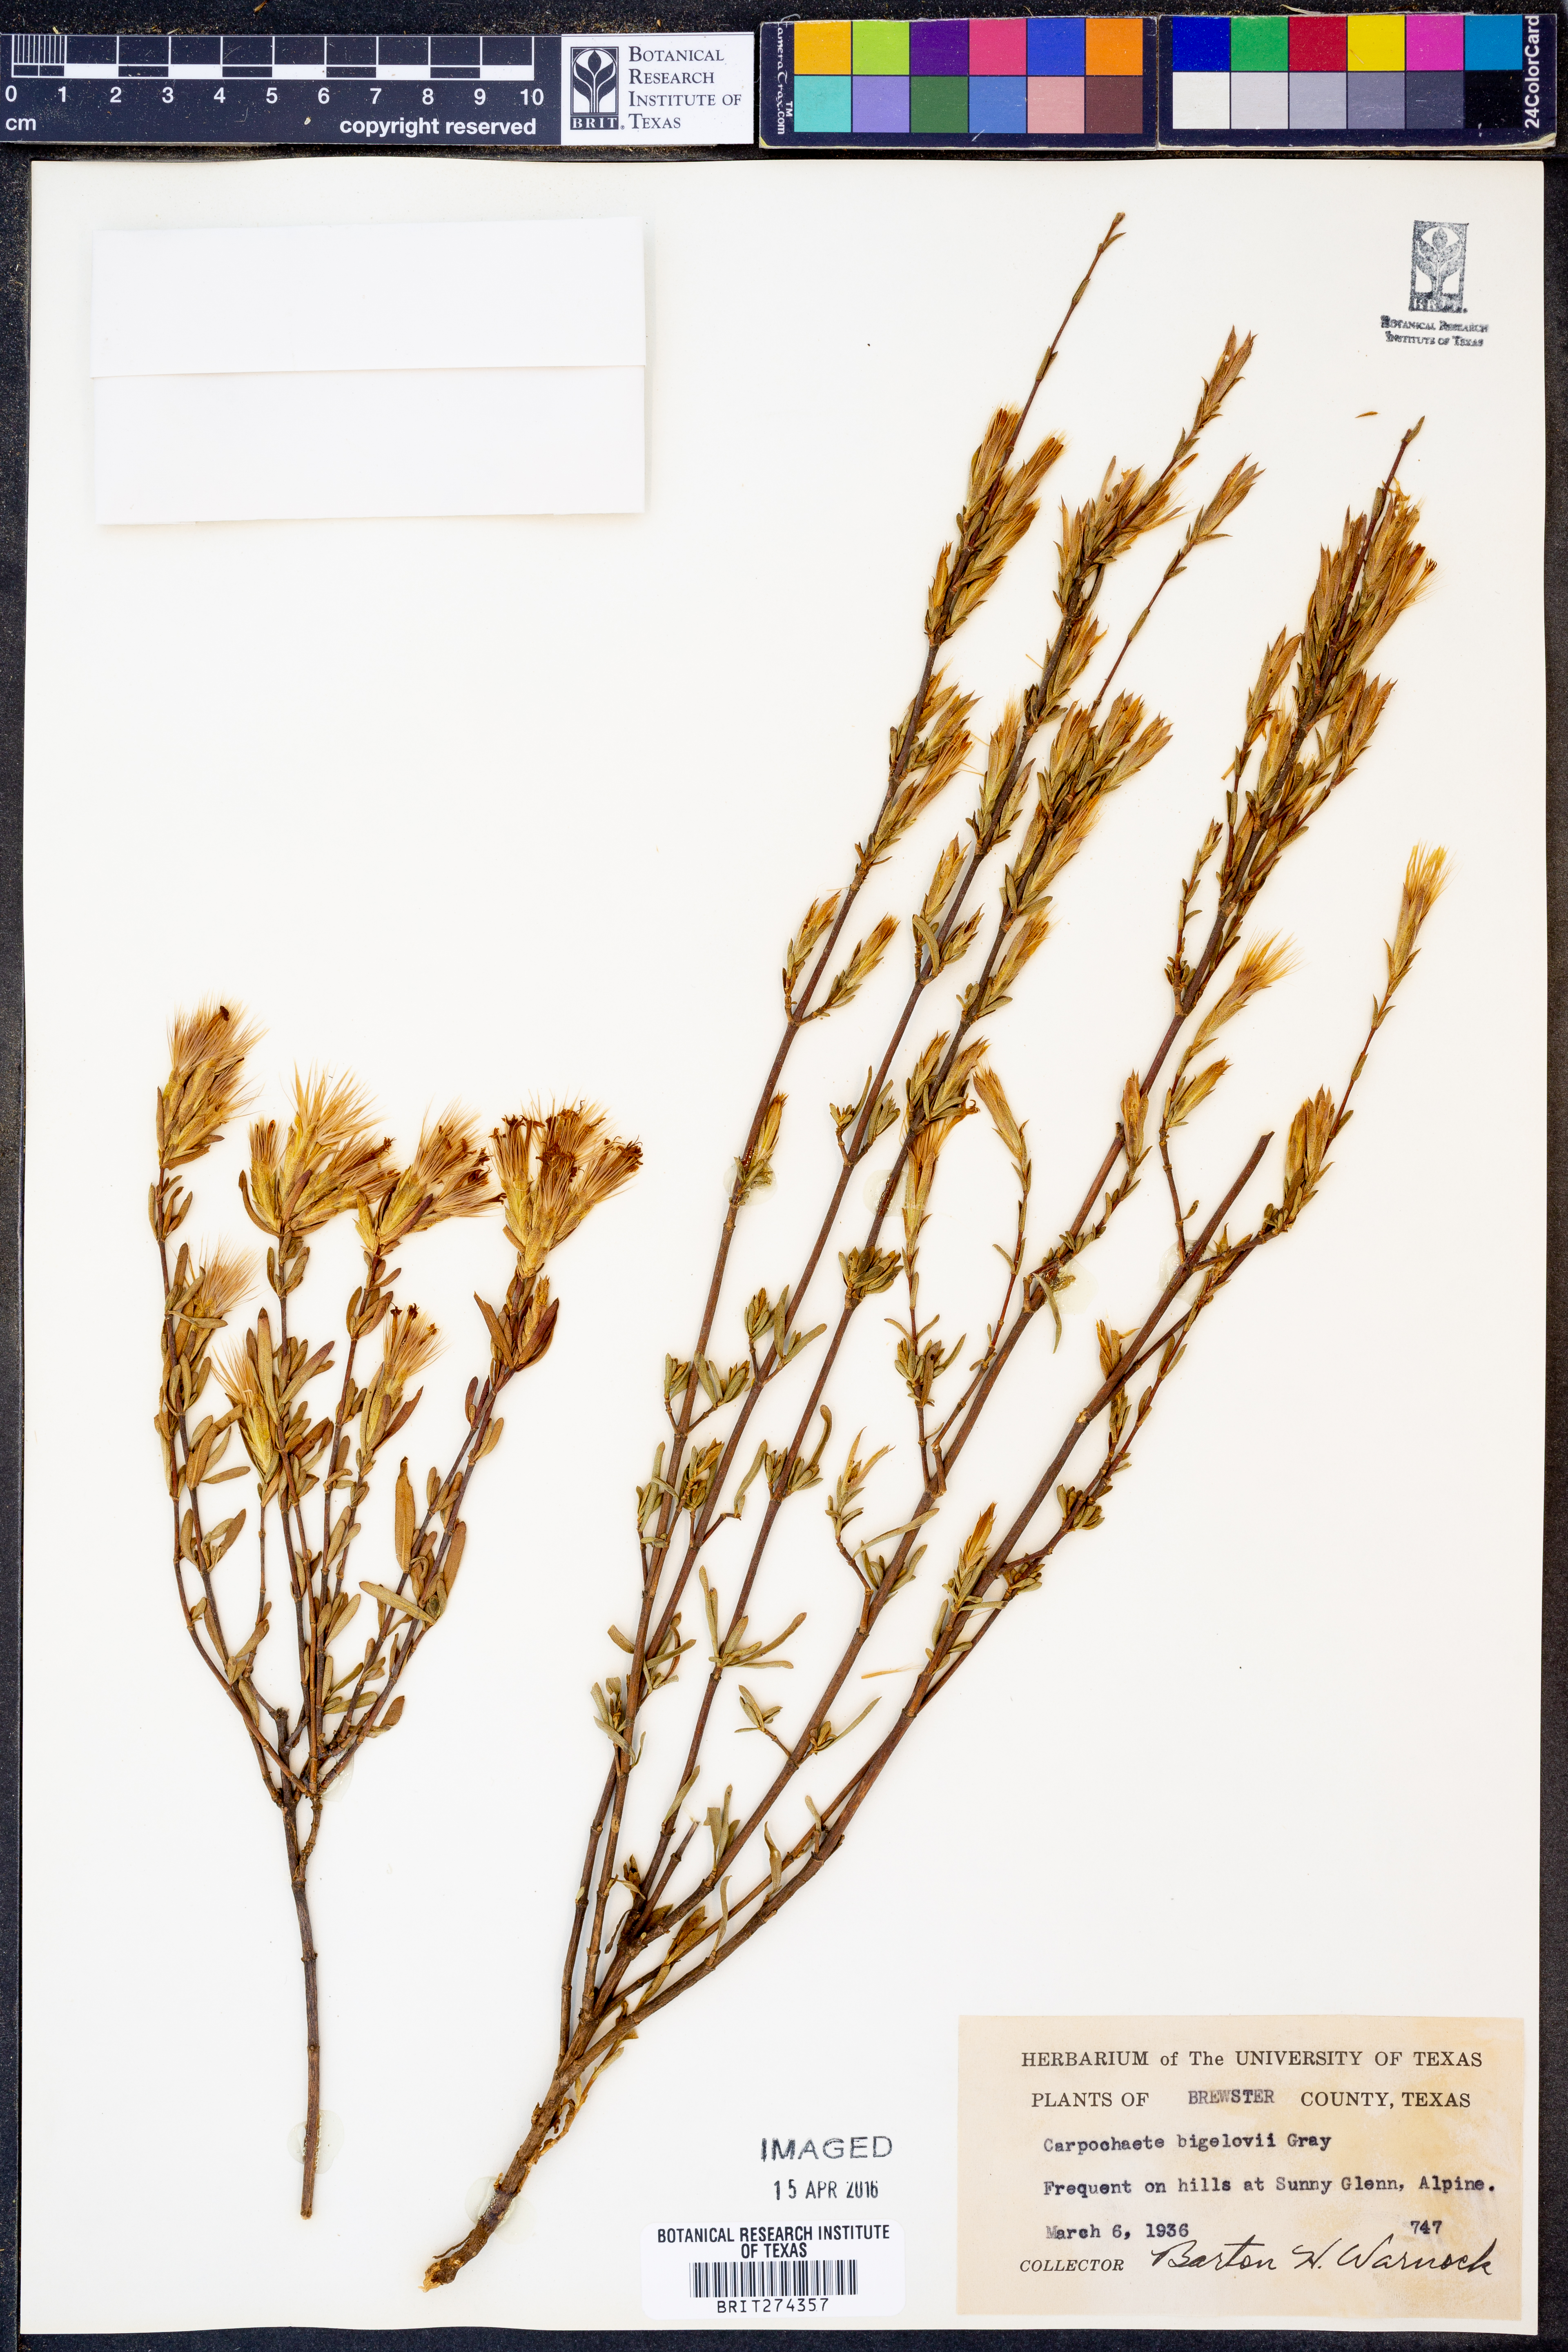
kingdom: Plantae
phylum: Tracheophyta
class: Magnoliopsida
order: Asterales
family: Asteraceae
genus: Carphochaete
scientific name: Carphochaete bigelovii
